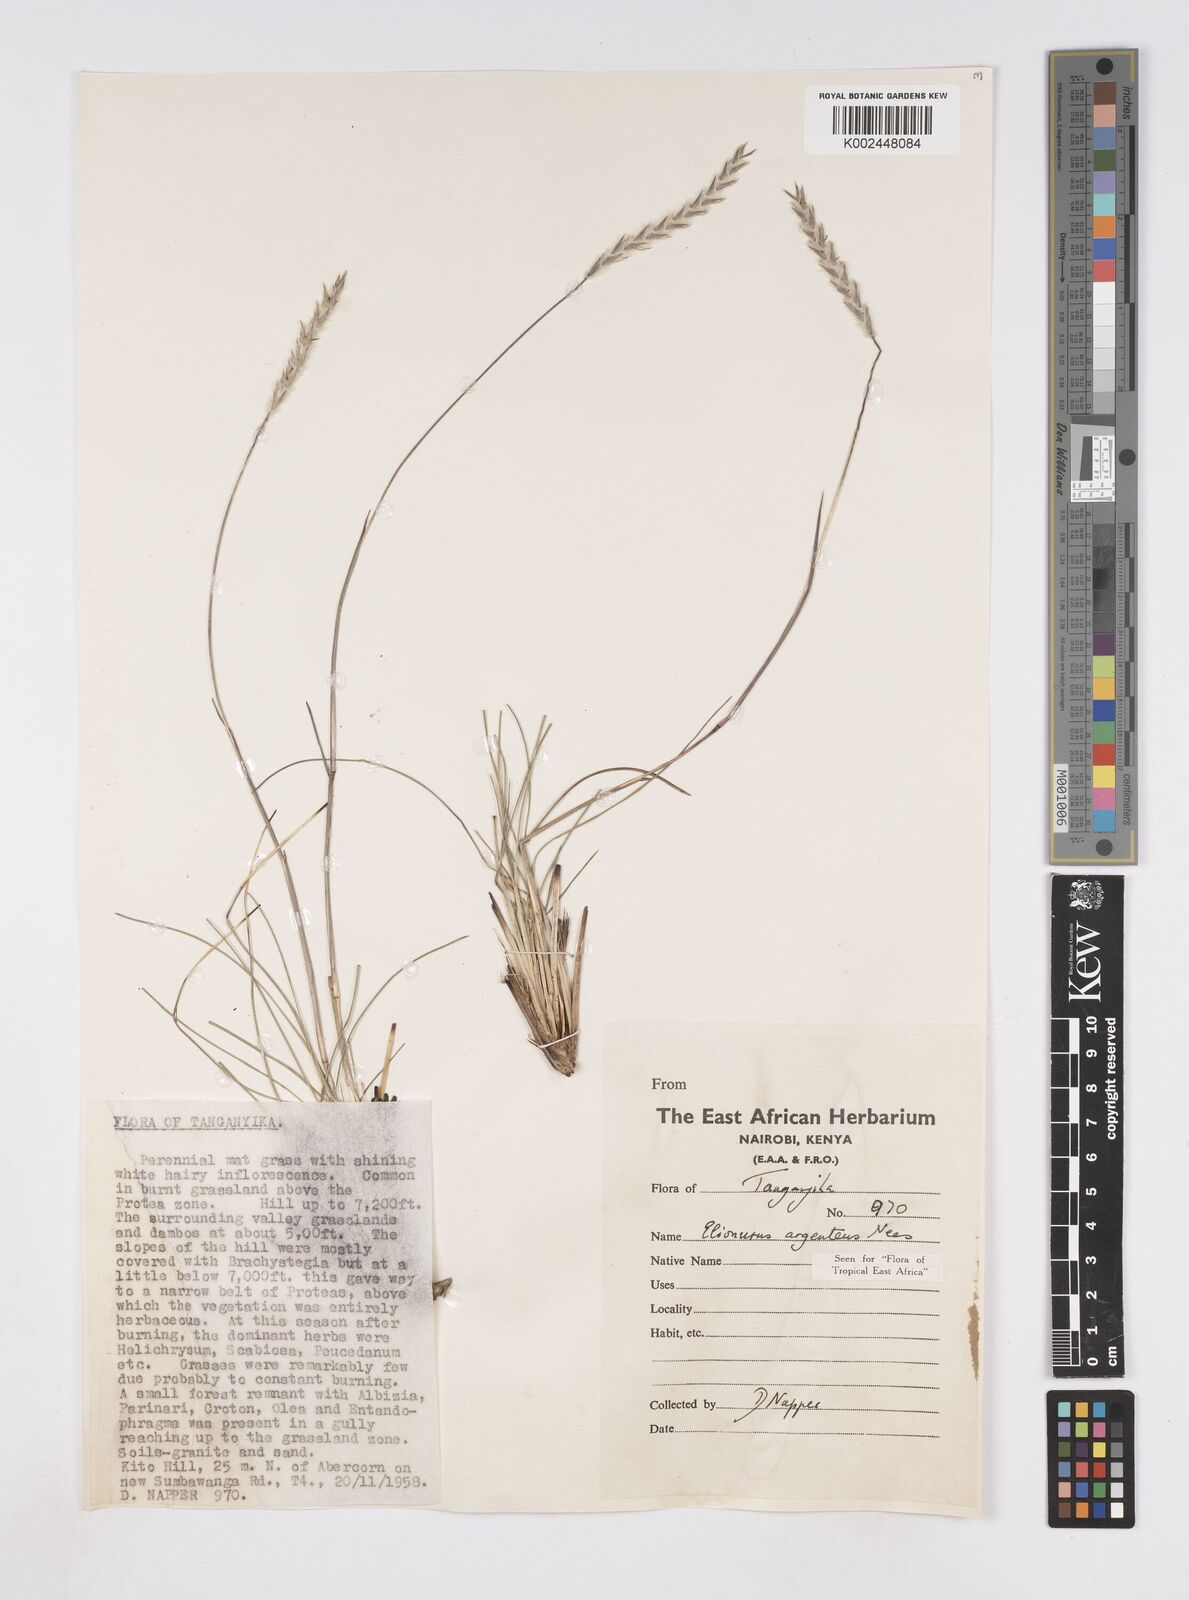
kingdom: Plantae
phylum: Tracheophyta
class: Liliopsida
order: Poales
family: Poaceae
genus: Elionurus
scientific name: Elionurus muticus
